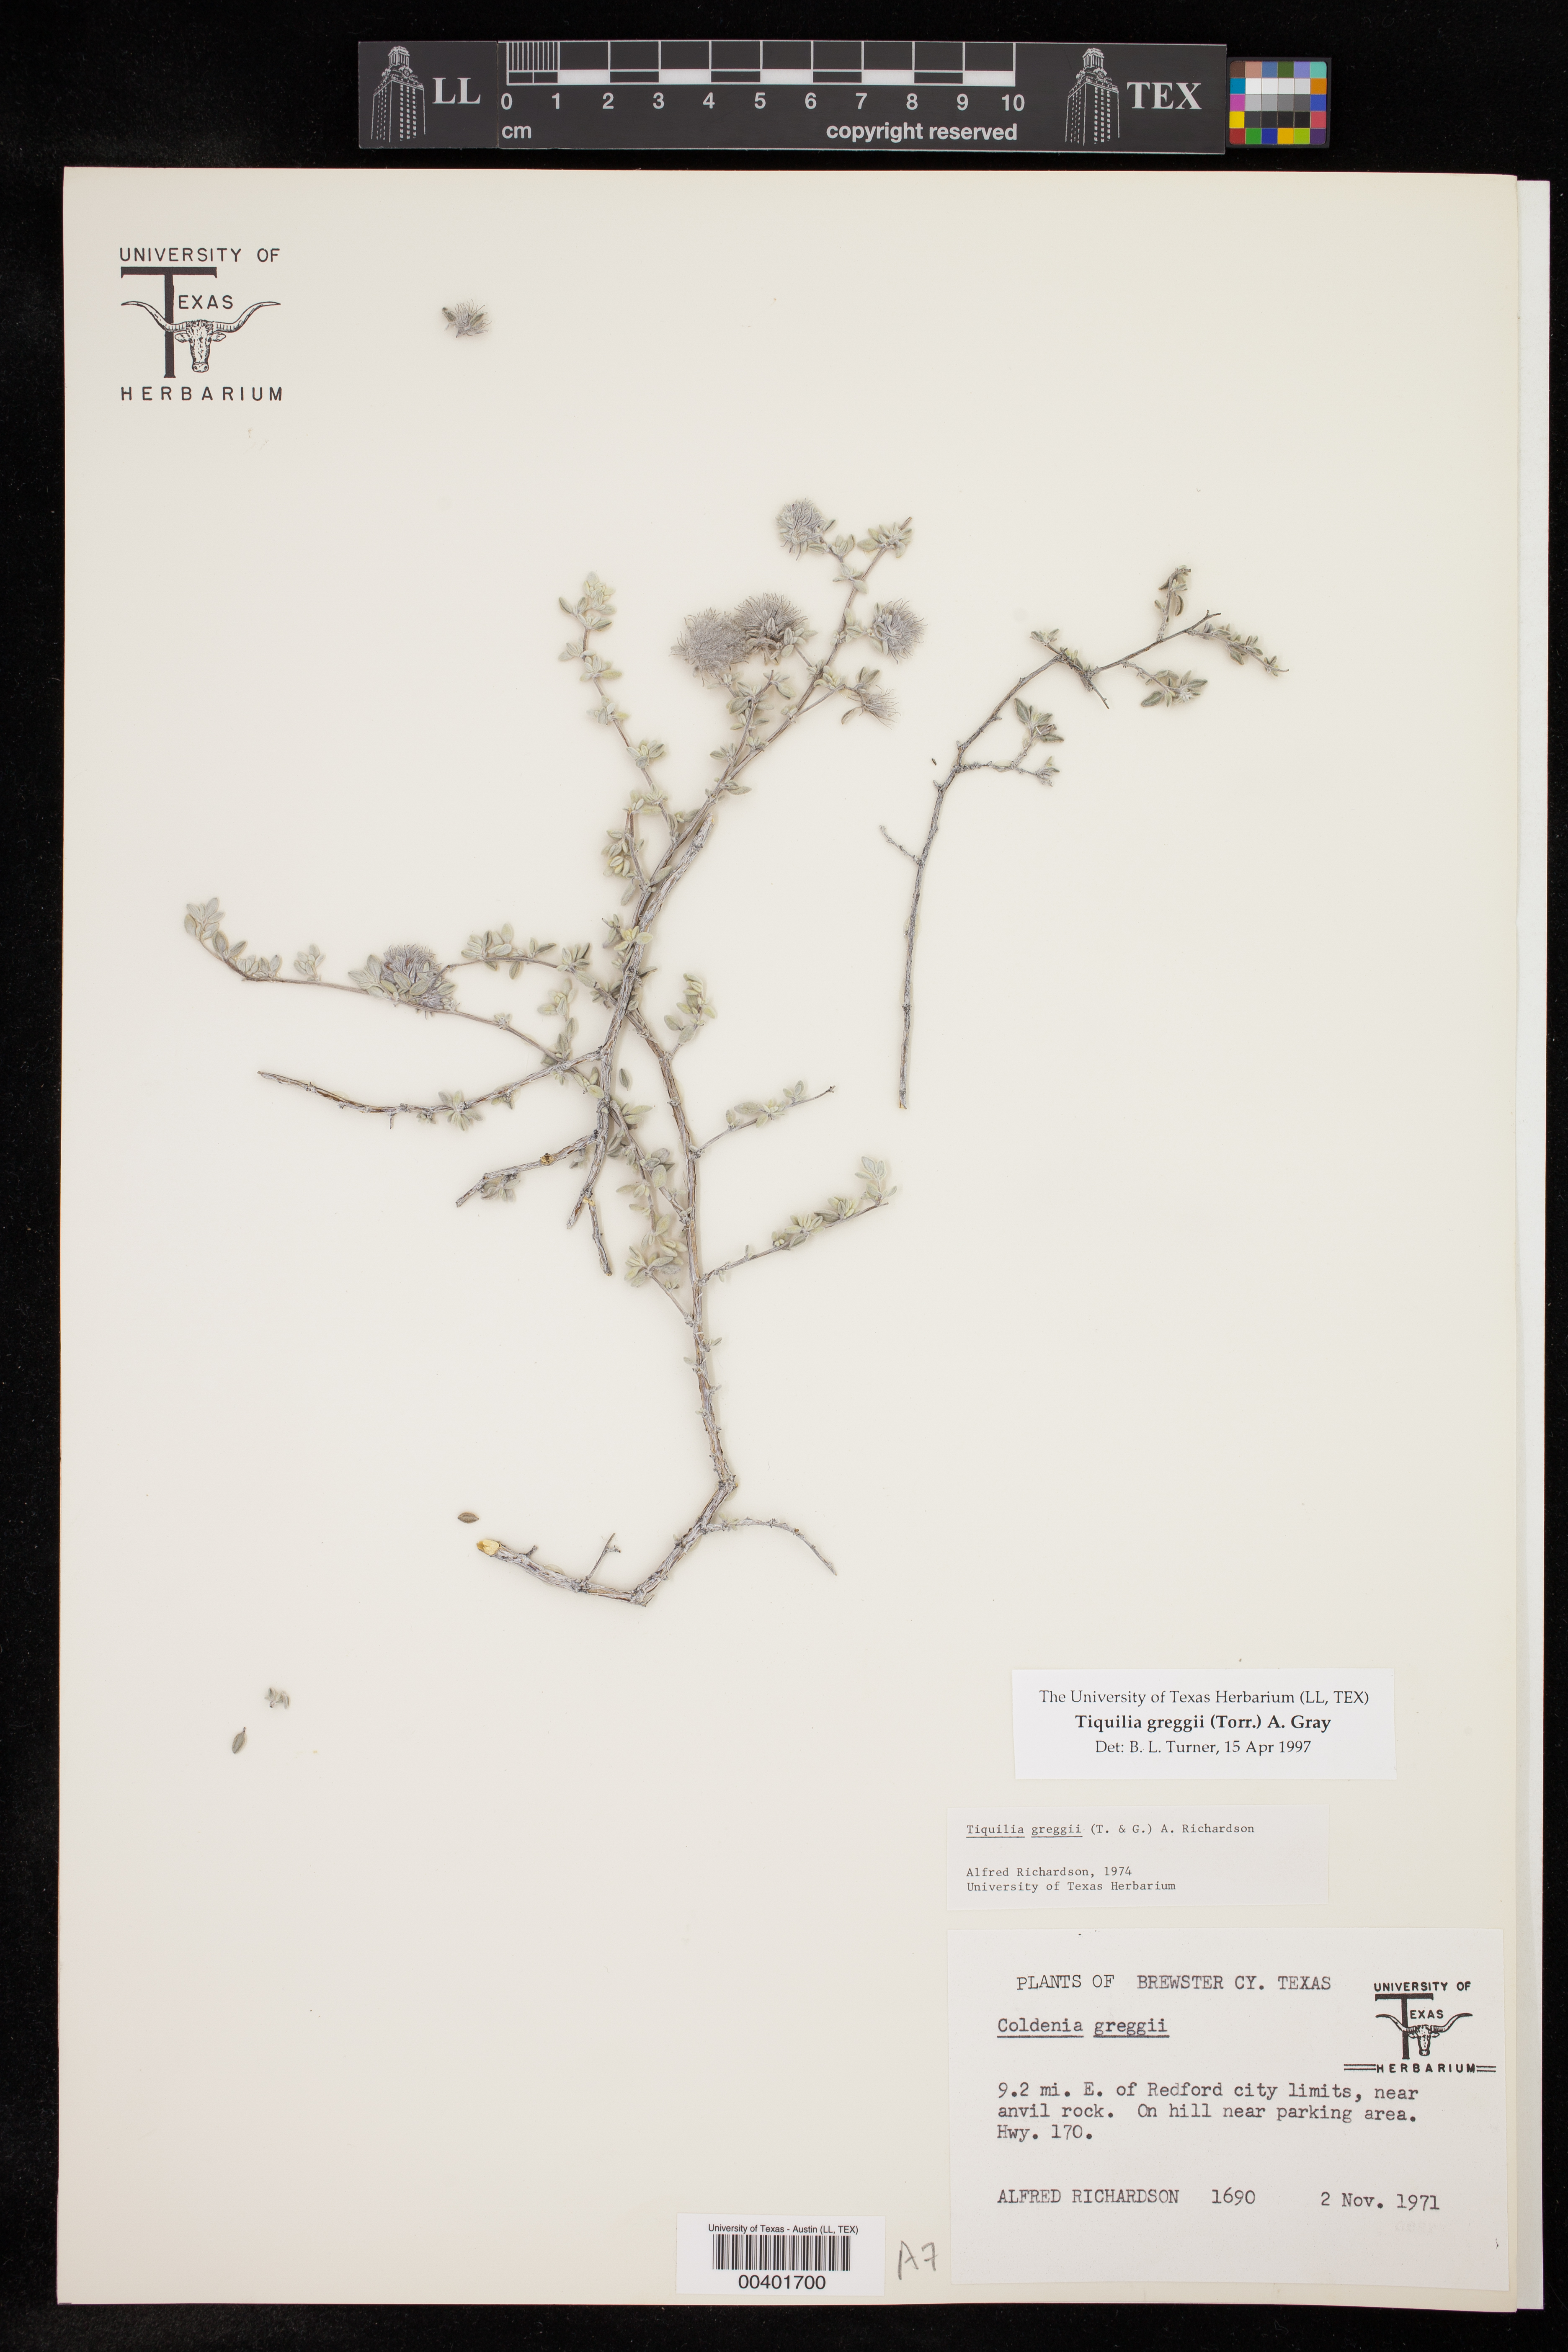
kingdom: Plantae
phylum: Tracheophyta
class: Magnoliopsida
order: Boraginales
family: Ehretiaceae
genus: Tiquilia
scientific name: Tiquilia greggii
